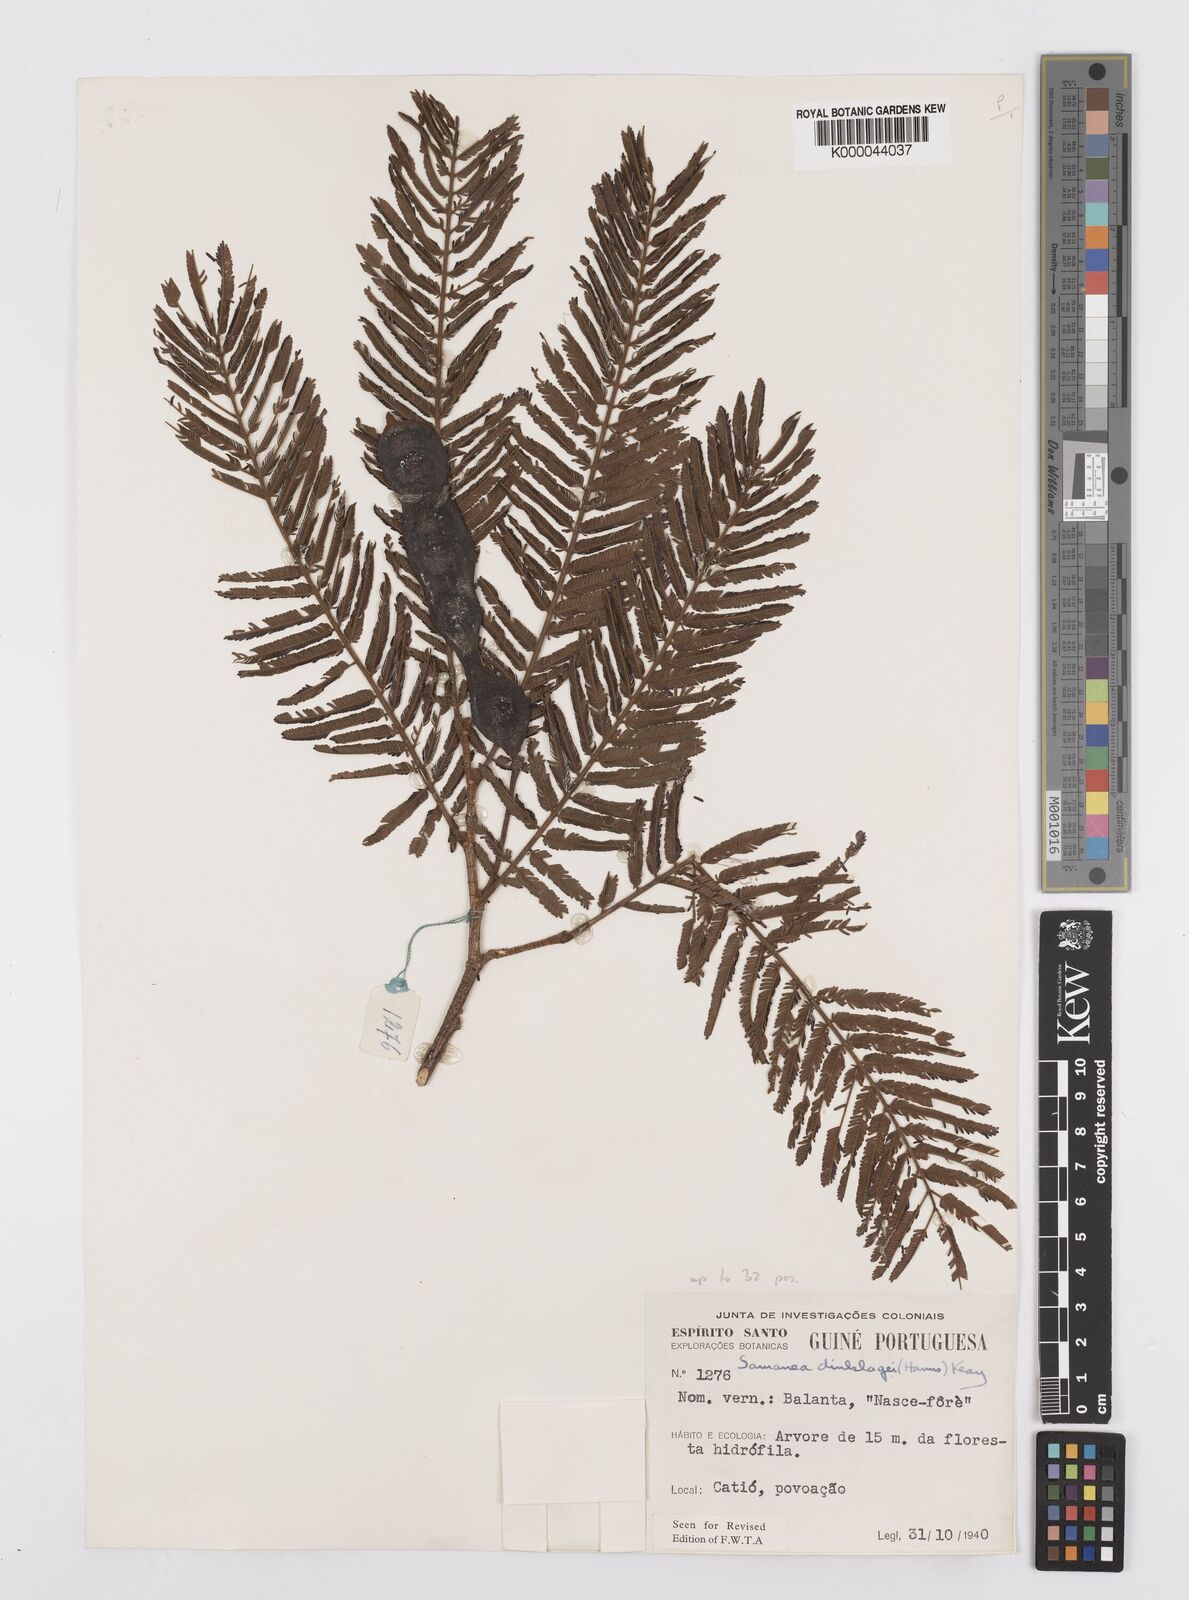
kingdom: Plantae
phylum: Tracheophyta
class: Magnoliopsida
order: Fabales
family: Fabaceae
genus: Albizia
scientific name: Albizia dinklagei
